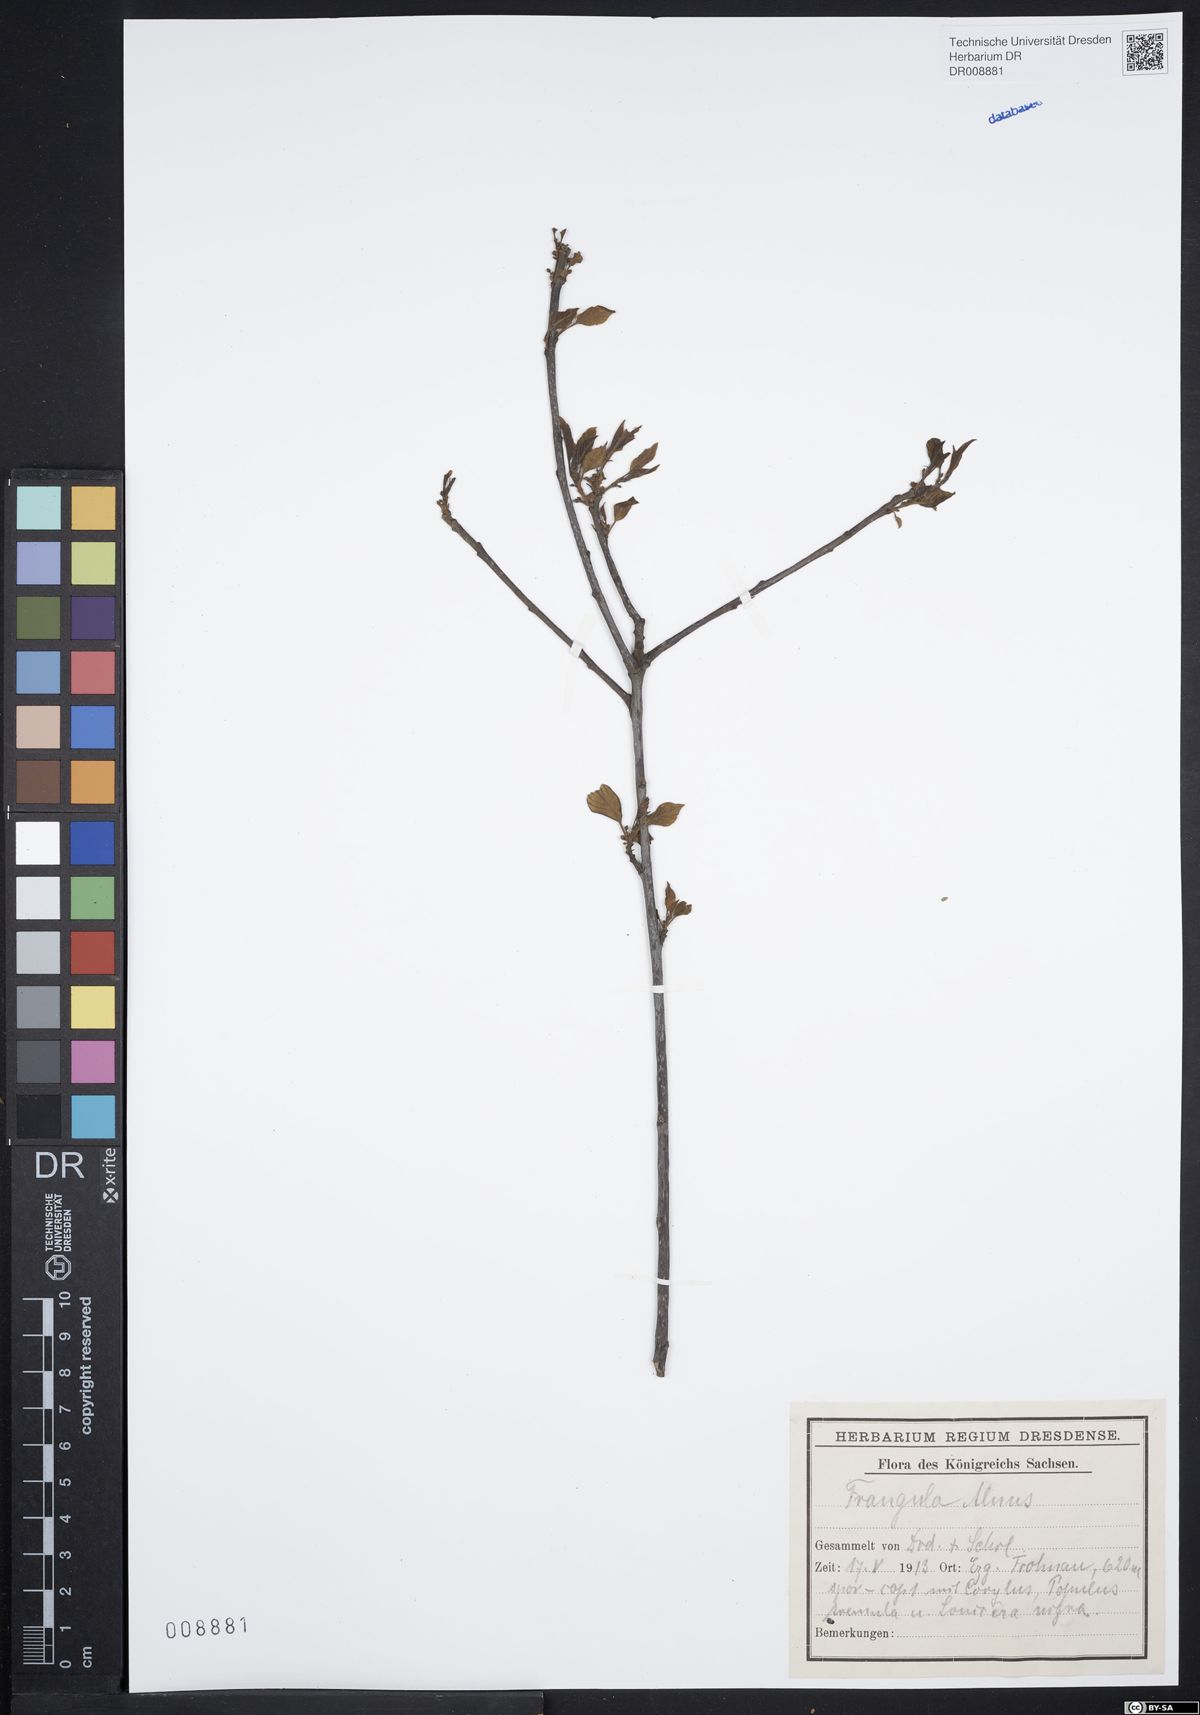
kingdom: Plantae
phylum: Tracheophyta
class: Magnoliopsida
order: Rosales
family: Rhamnaceae
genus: Frangula
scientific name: Frangula alnus
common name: Alder buckthorn
